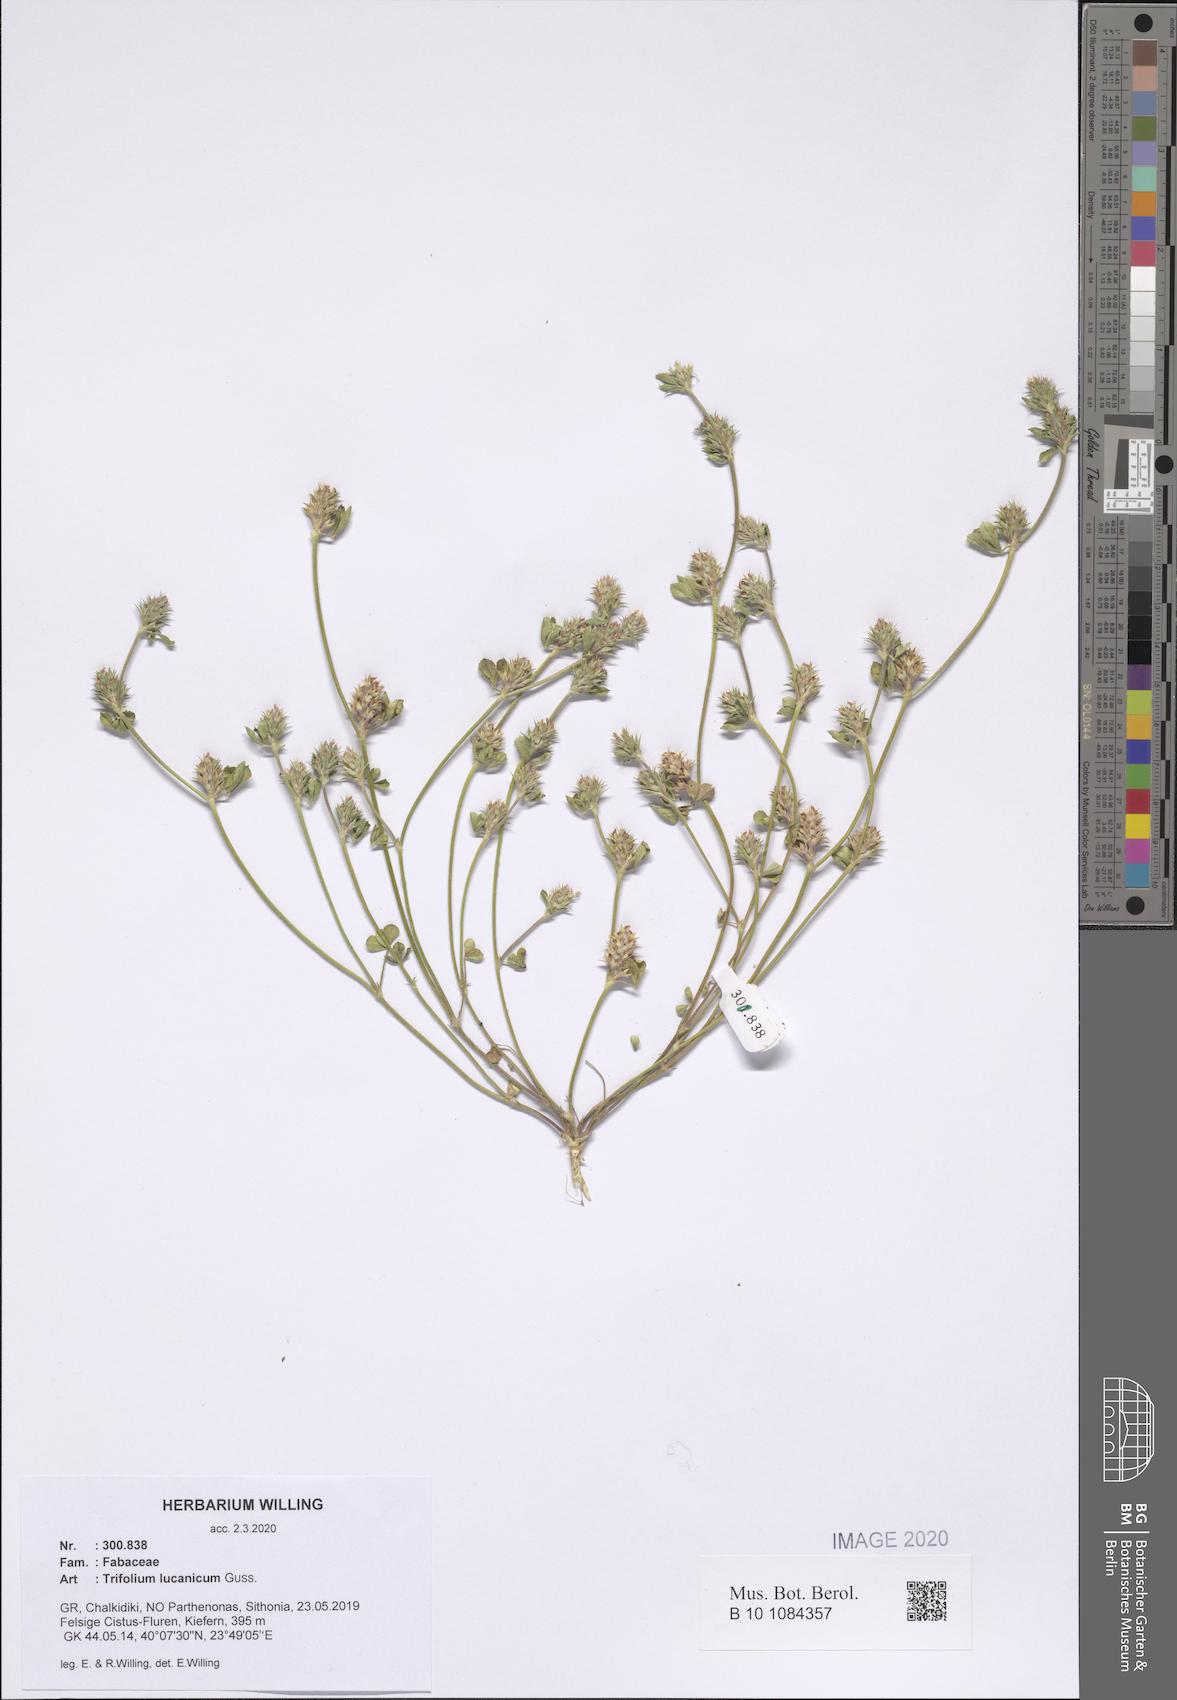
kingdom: Plantae
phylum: Tracheophyta
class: Magnoliopsida
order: Fabales
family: Fabaceae
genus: Trifolium
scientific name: Trifolium lucanicum
